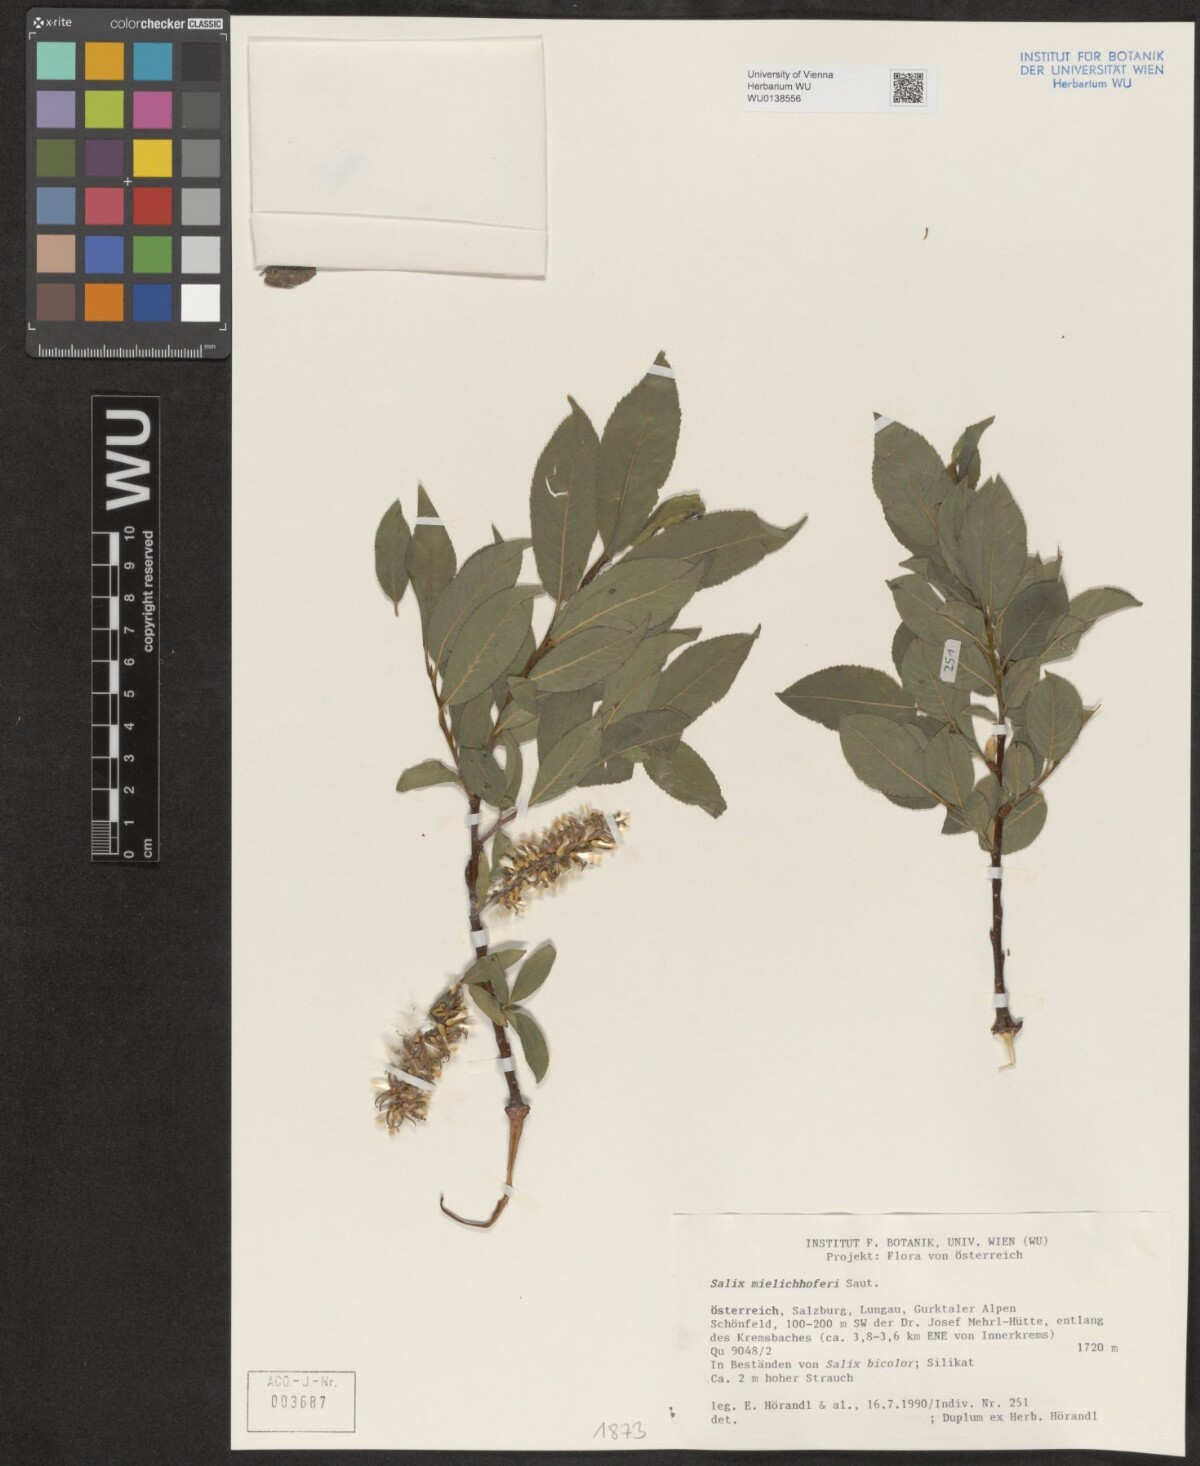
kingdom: Plantae
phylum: Tracheophyta
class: Magnoliopsida
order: Malpighiales
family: Salicaceae
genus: Salix
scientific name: Salix mielichhoferi
